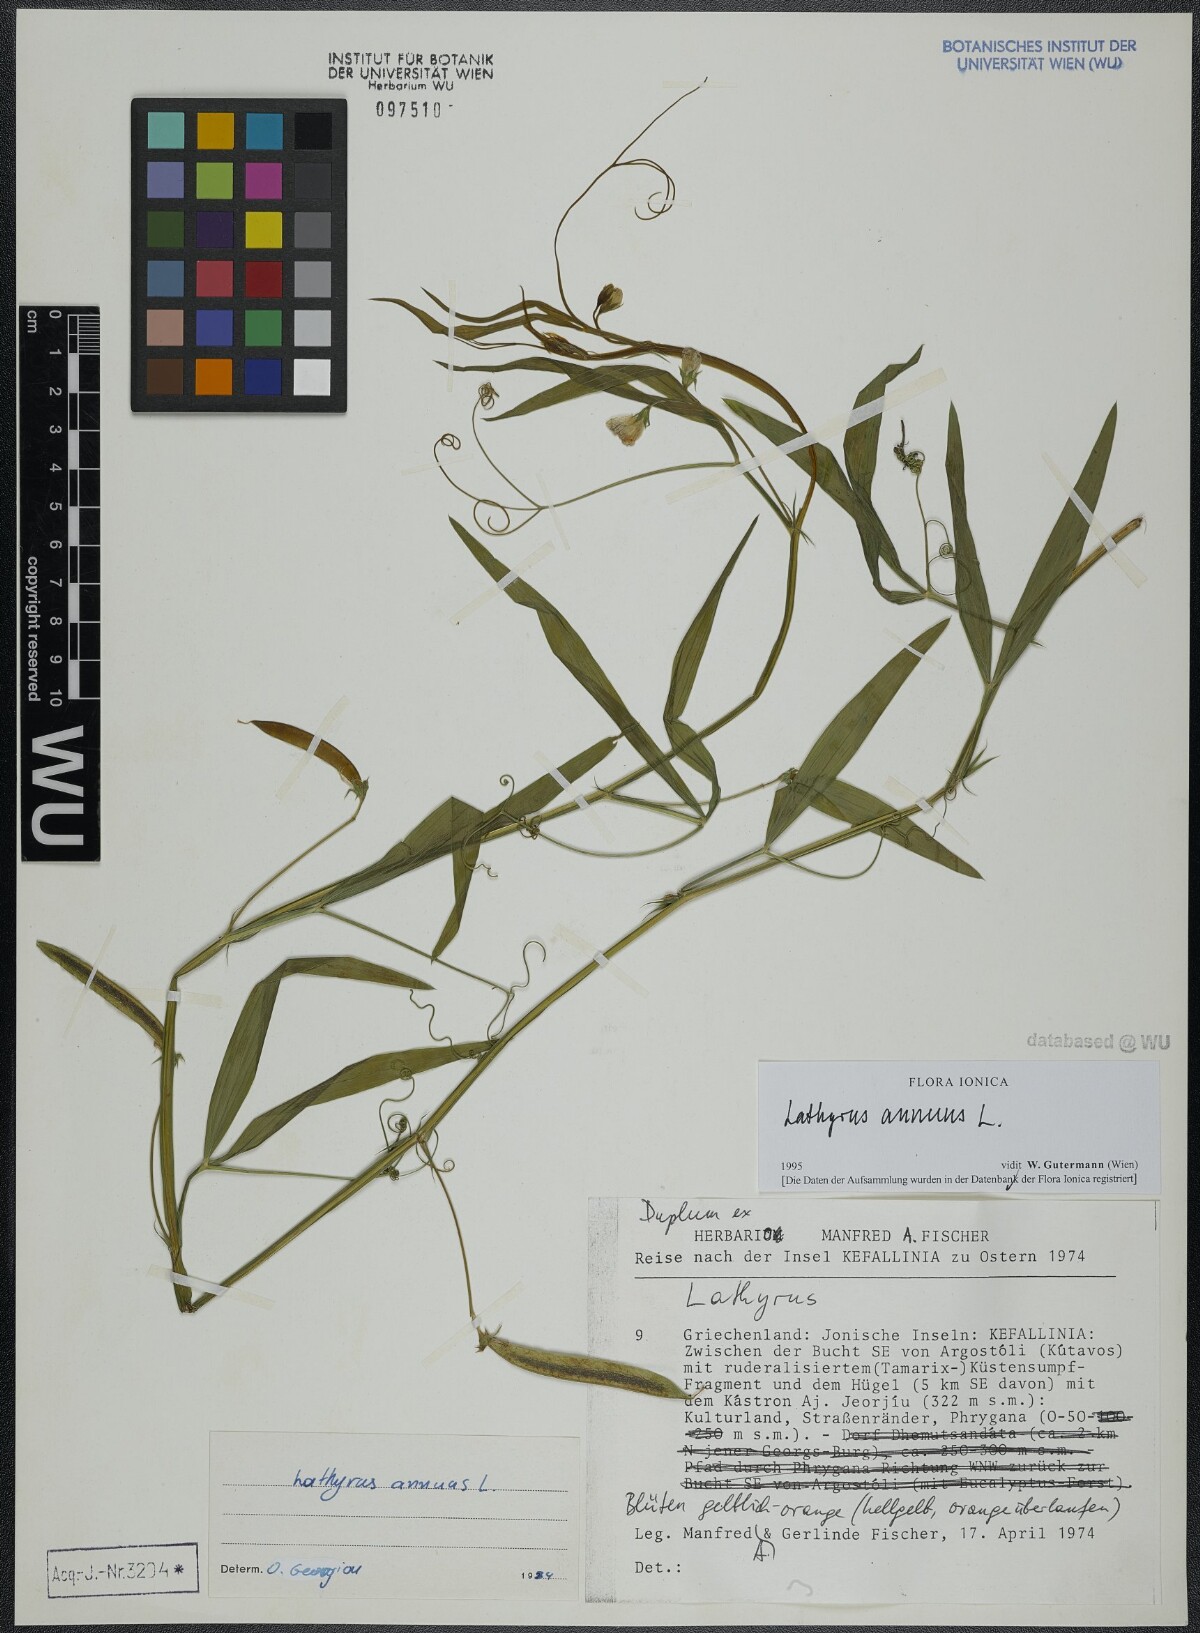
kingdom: Plantae
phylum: Tracheophyta
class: Magnoliopsida
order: Fabales
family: Fabaceae
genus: Lathyrus
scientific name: Lathyrus annuus
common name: Fodder pea
